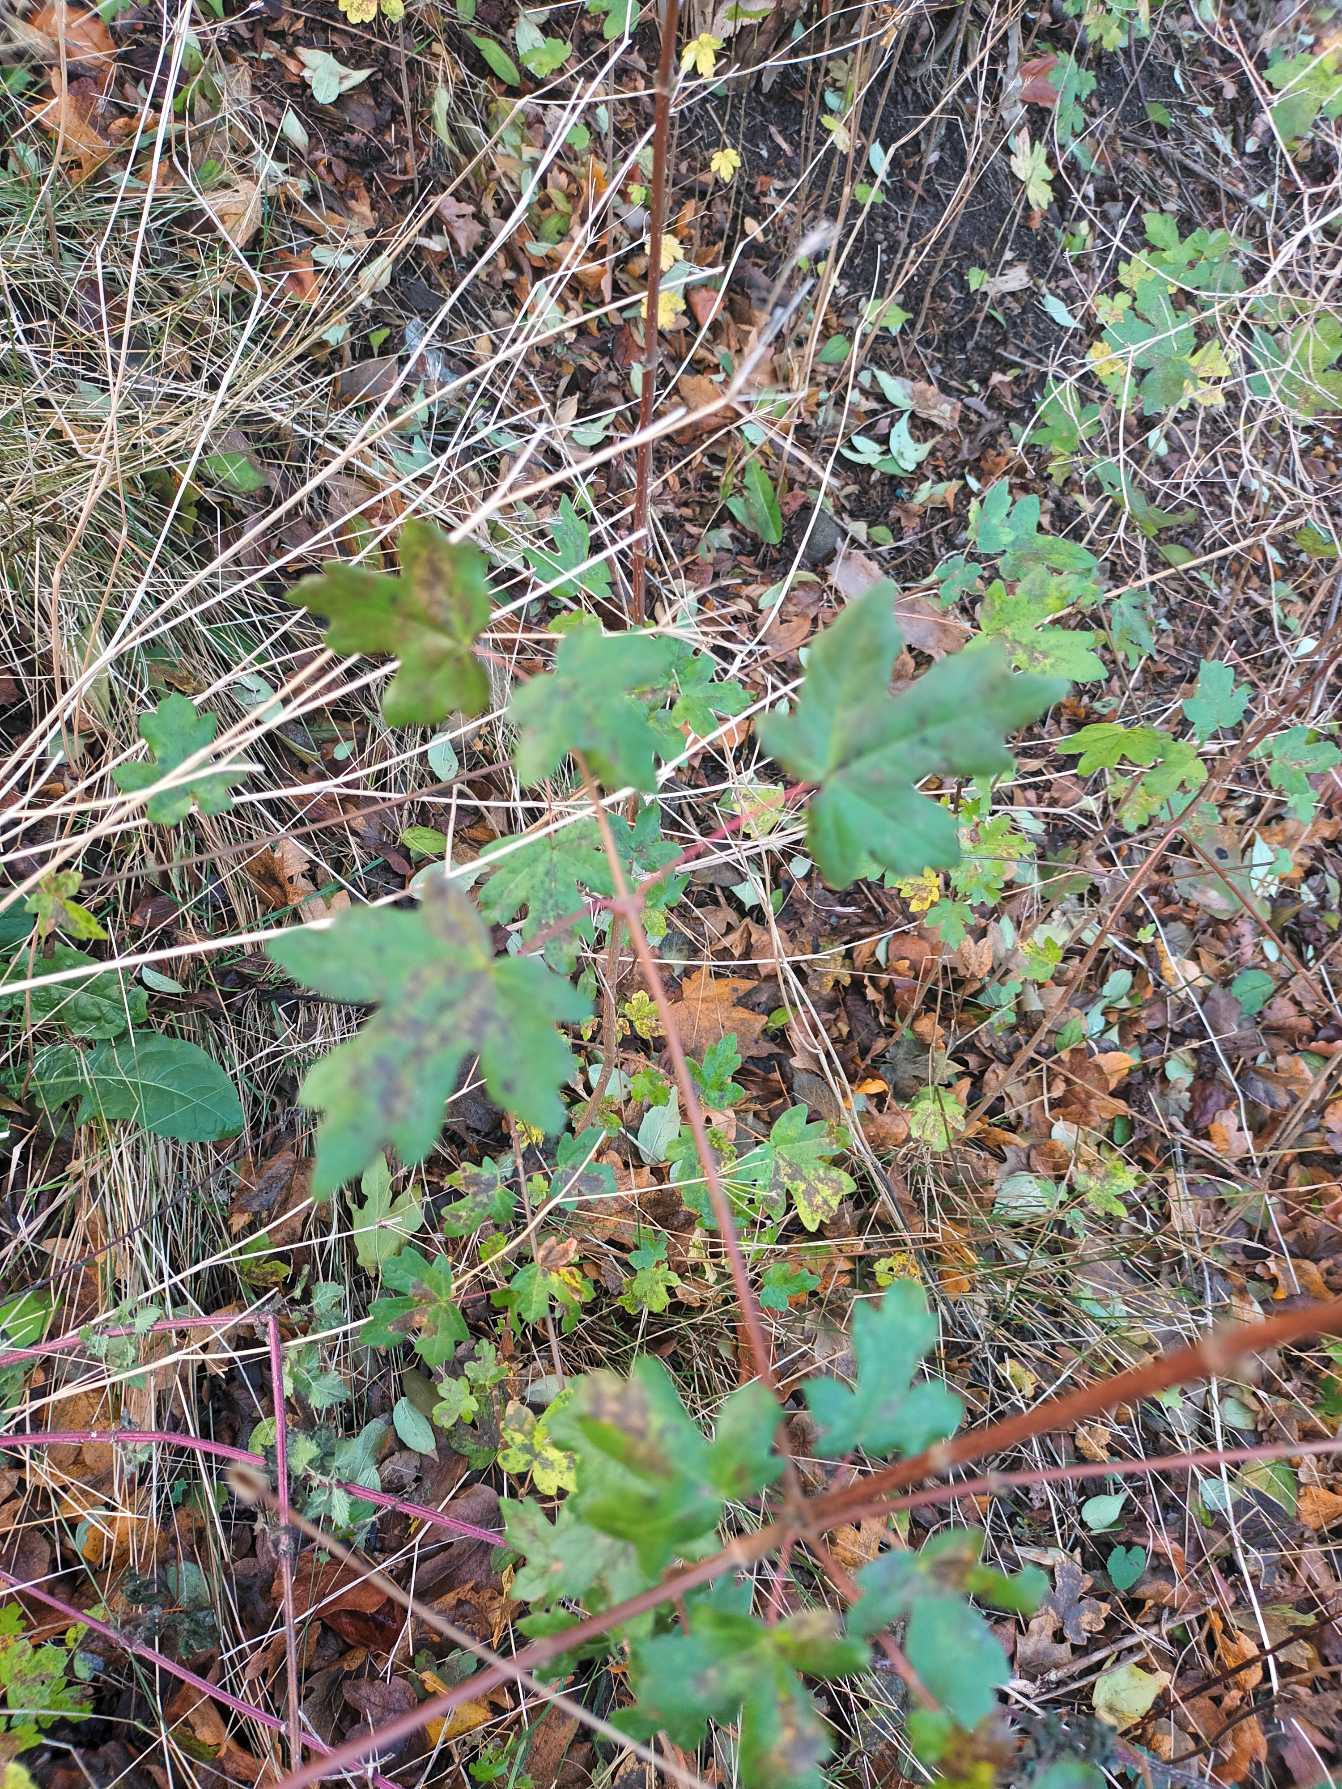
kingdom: Plantae
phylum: Tracheophyta
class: Magnoliopsida
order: Sapindales
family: Sapindaceae
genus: Acer
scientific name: Acer campestre
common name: Navr
